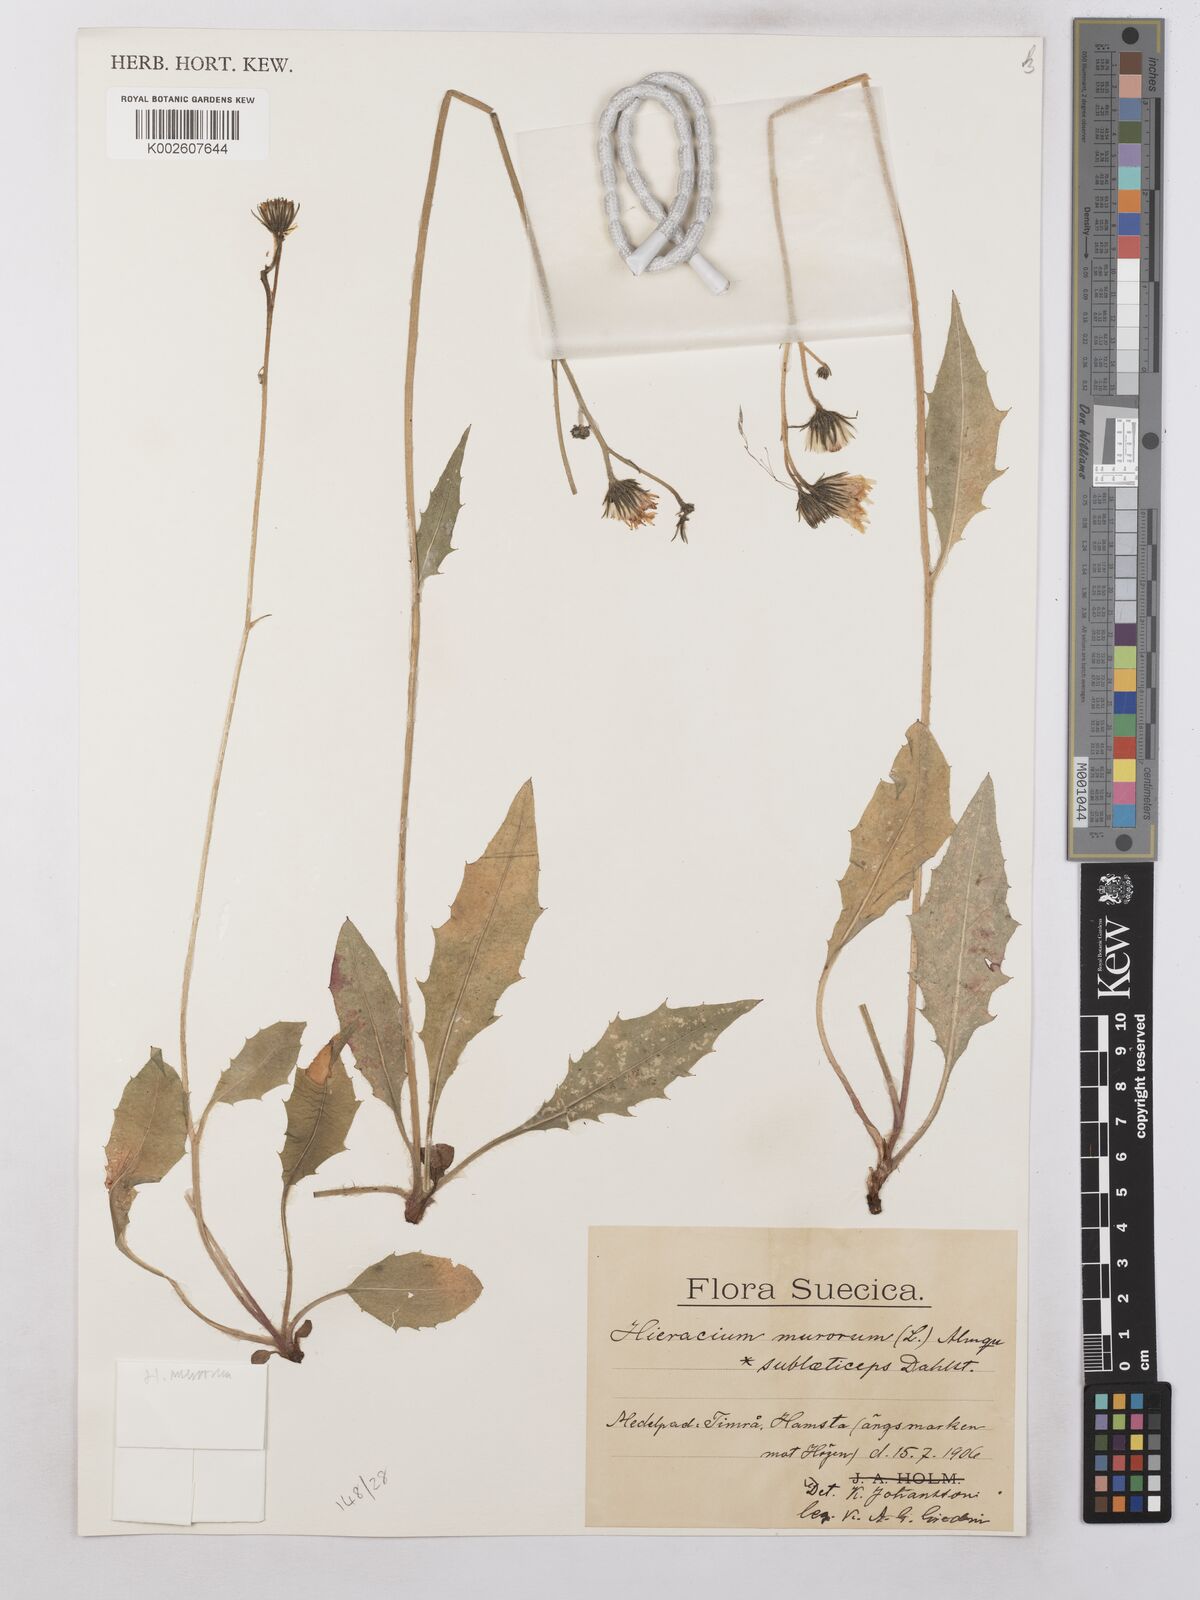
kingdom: Plantae
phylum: Tracheophyta
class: Magnoliopsida
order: Asterales
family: Asteraceae
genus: Hieracium
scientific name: Hieracium subramosum
